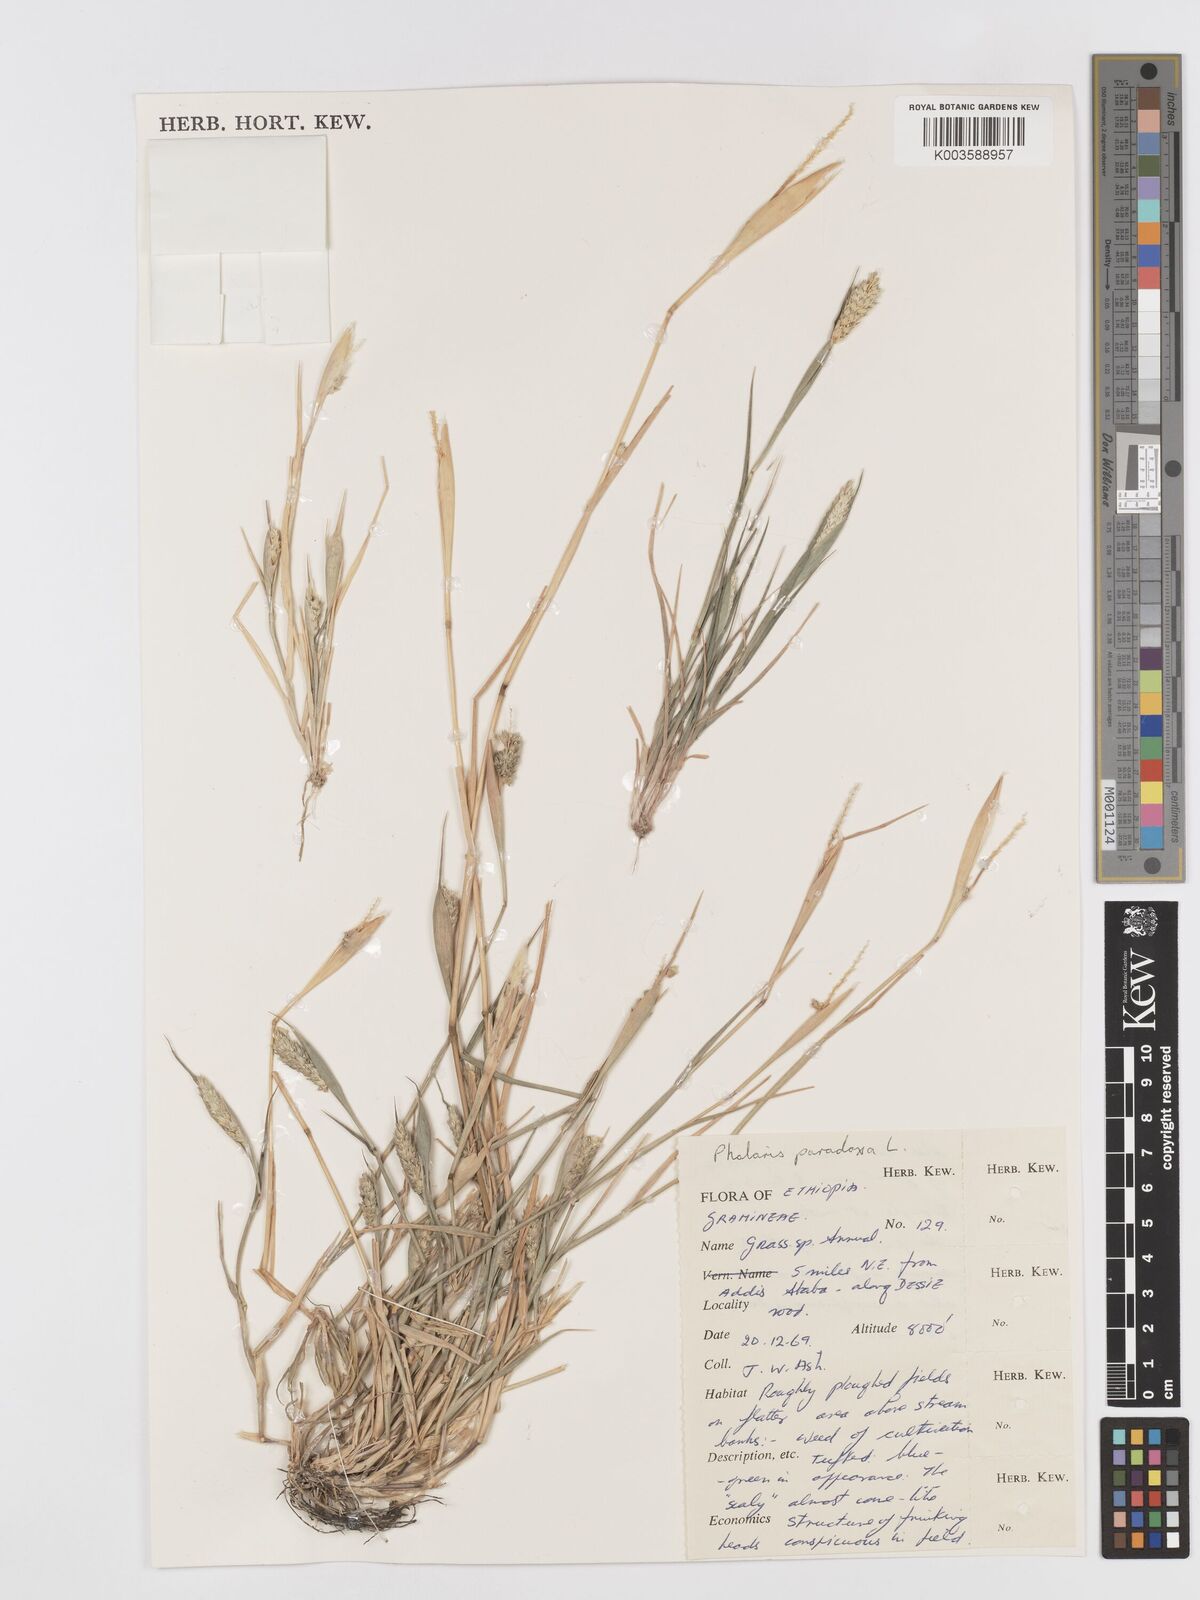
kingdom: Plantae
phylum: Tracheophyta
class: Liliopsida
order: Poales
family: Poaceae
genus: Phalaris
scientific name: Phalaris paradoxa
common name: Awned canary-grass
